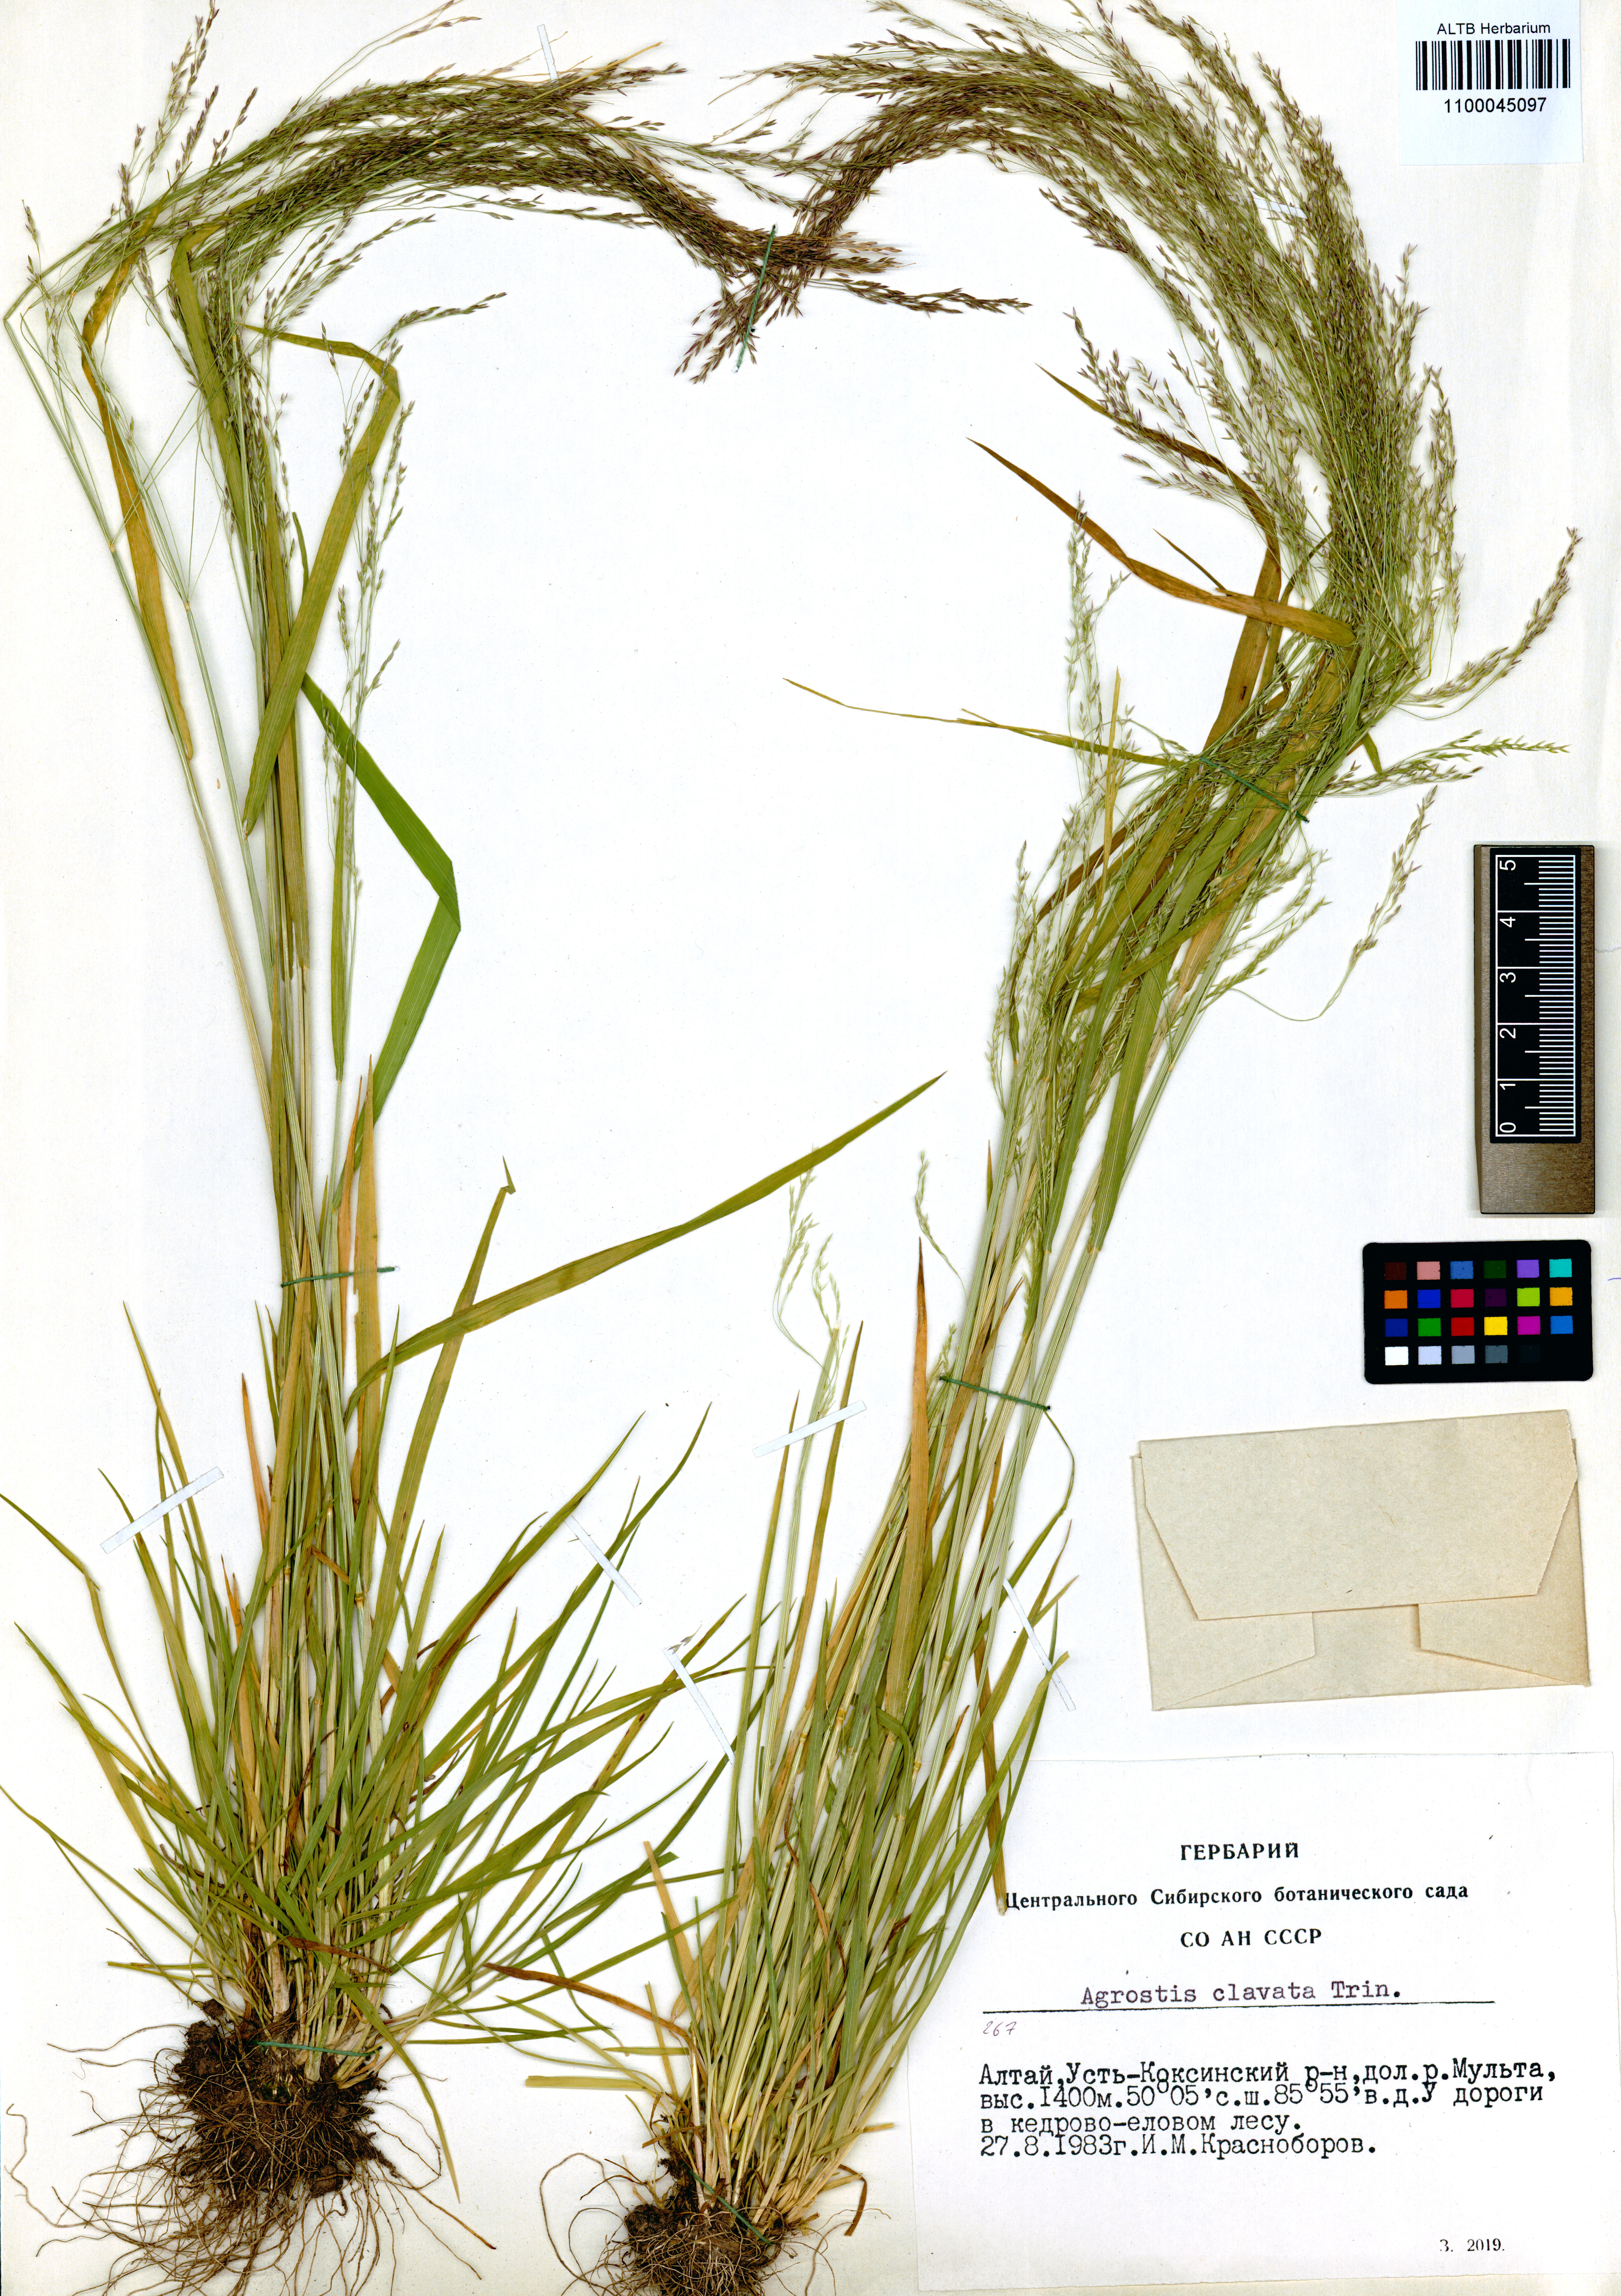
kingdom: Plantae
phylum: Tracheophyta
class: Liliopsida
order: Poales
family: Poaceae
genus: Agrostis
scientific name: Agrostis clavata
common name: Clavate bent
